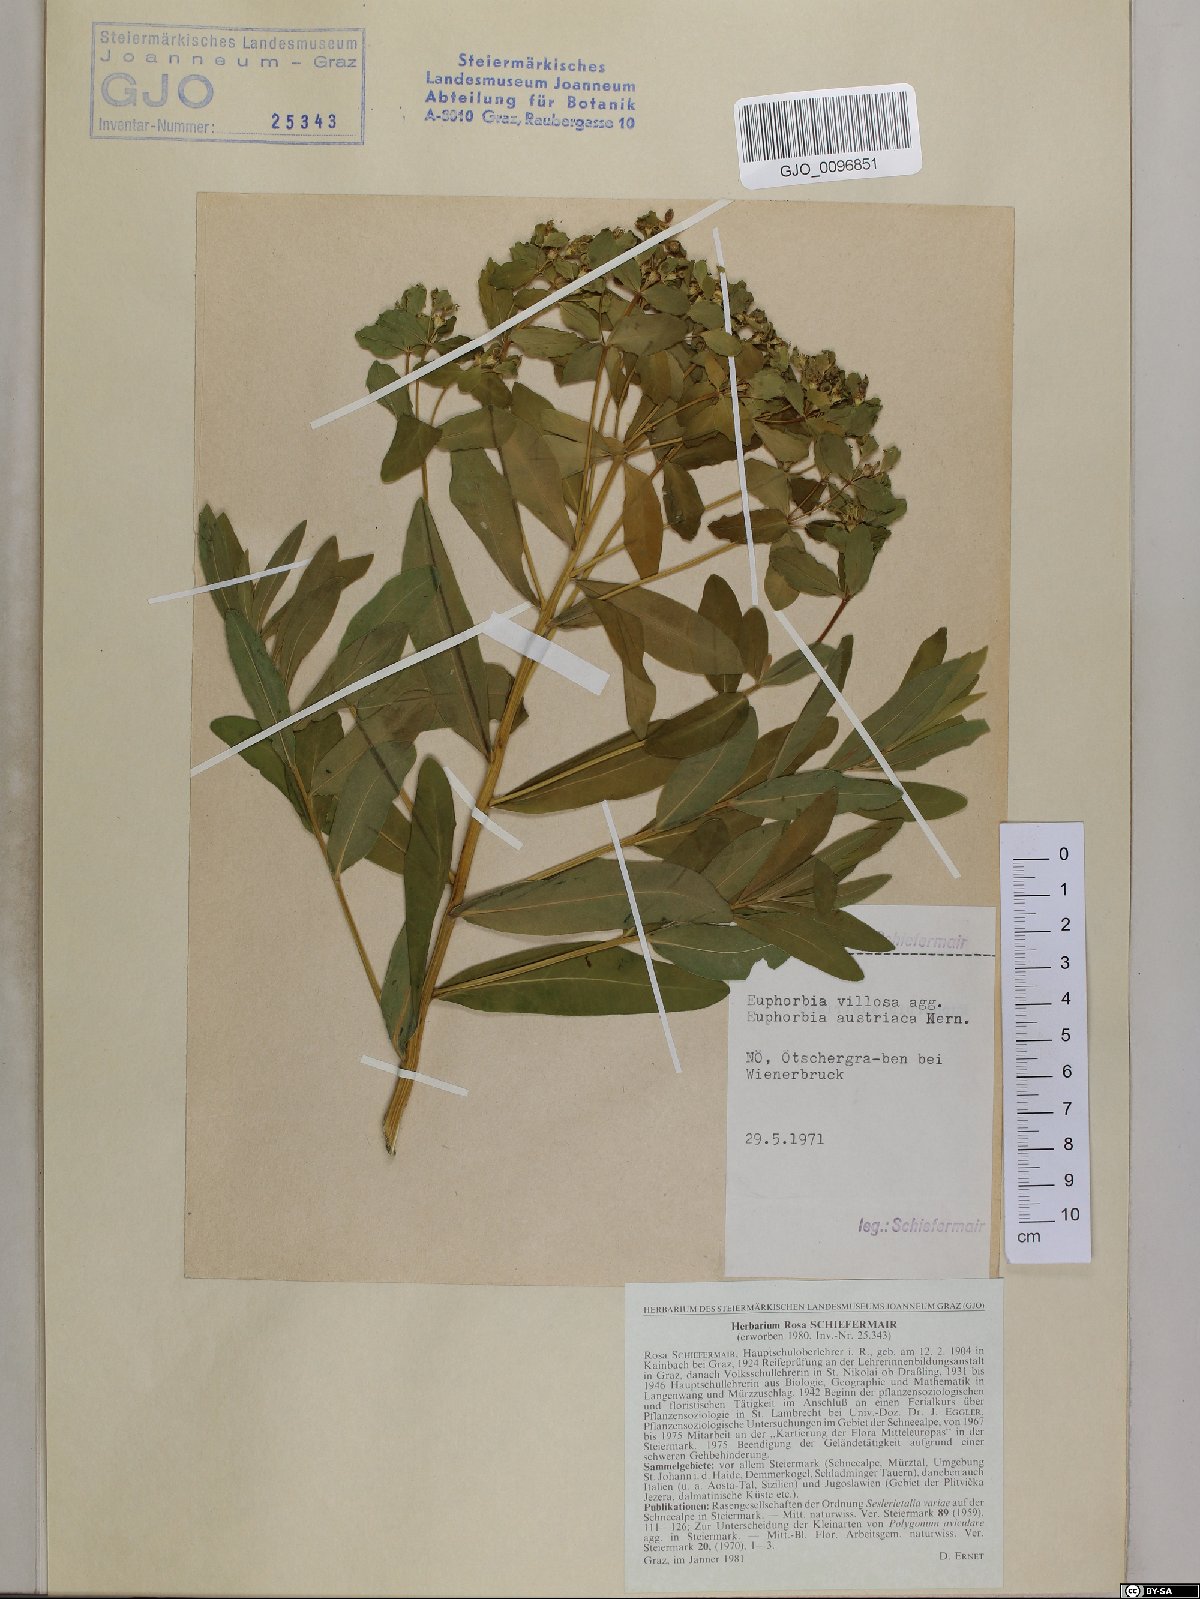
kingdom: Plantae
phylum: Tracheophyta
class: Magnoliopsida
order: Malpighiales
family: Euphorbiaceae
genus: Euphorbia
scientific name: Euphorbia austriaca
